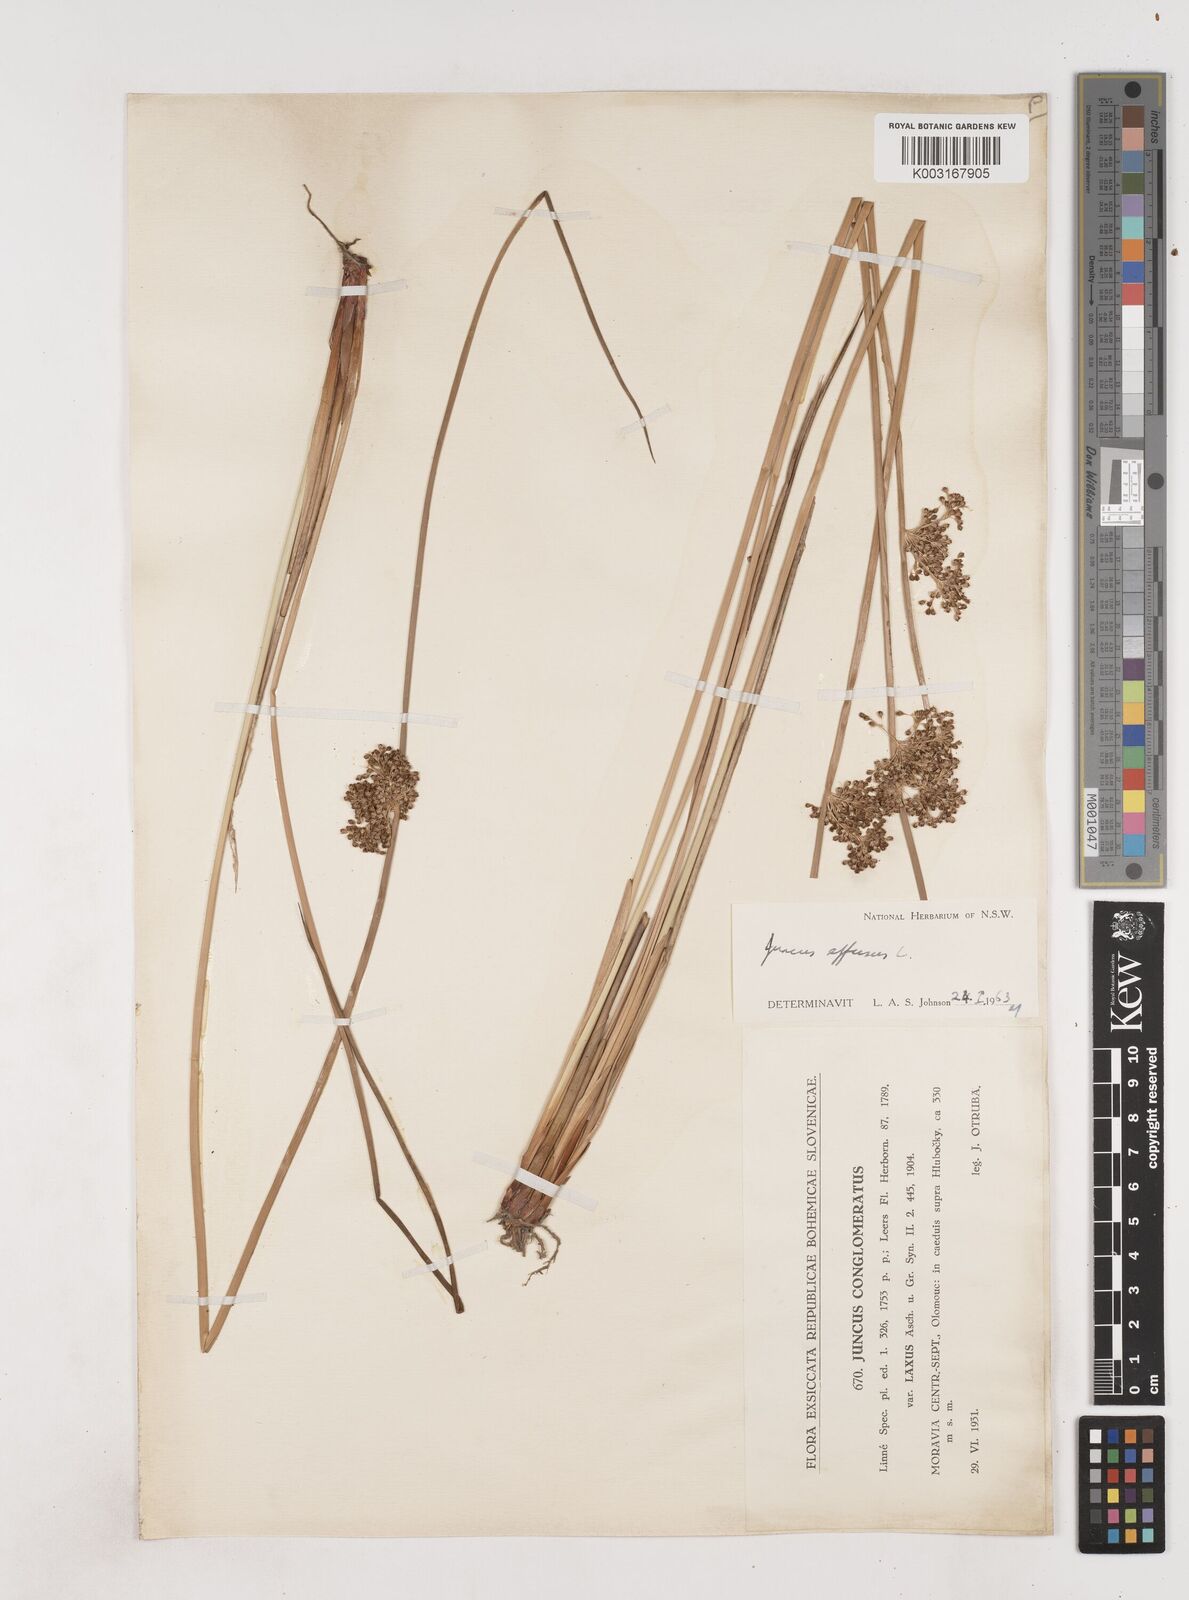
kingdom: Plantae
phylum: Tracheophyta
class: Liliopsida
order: Poales
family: Juncaceae
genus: Juncus
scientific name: Juncus effusus
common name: Soft rush
